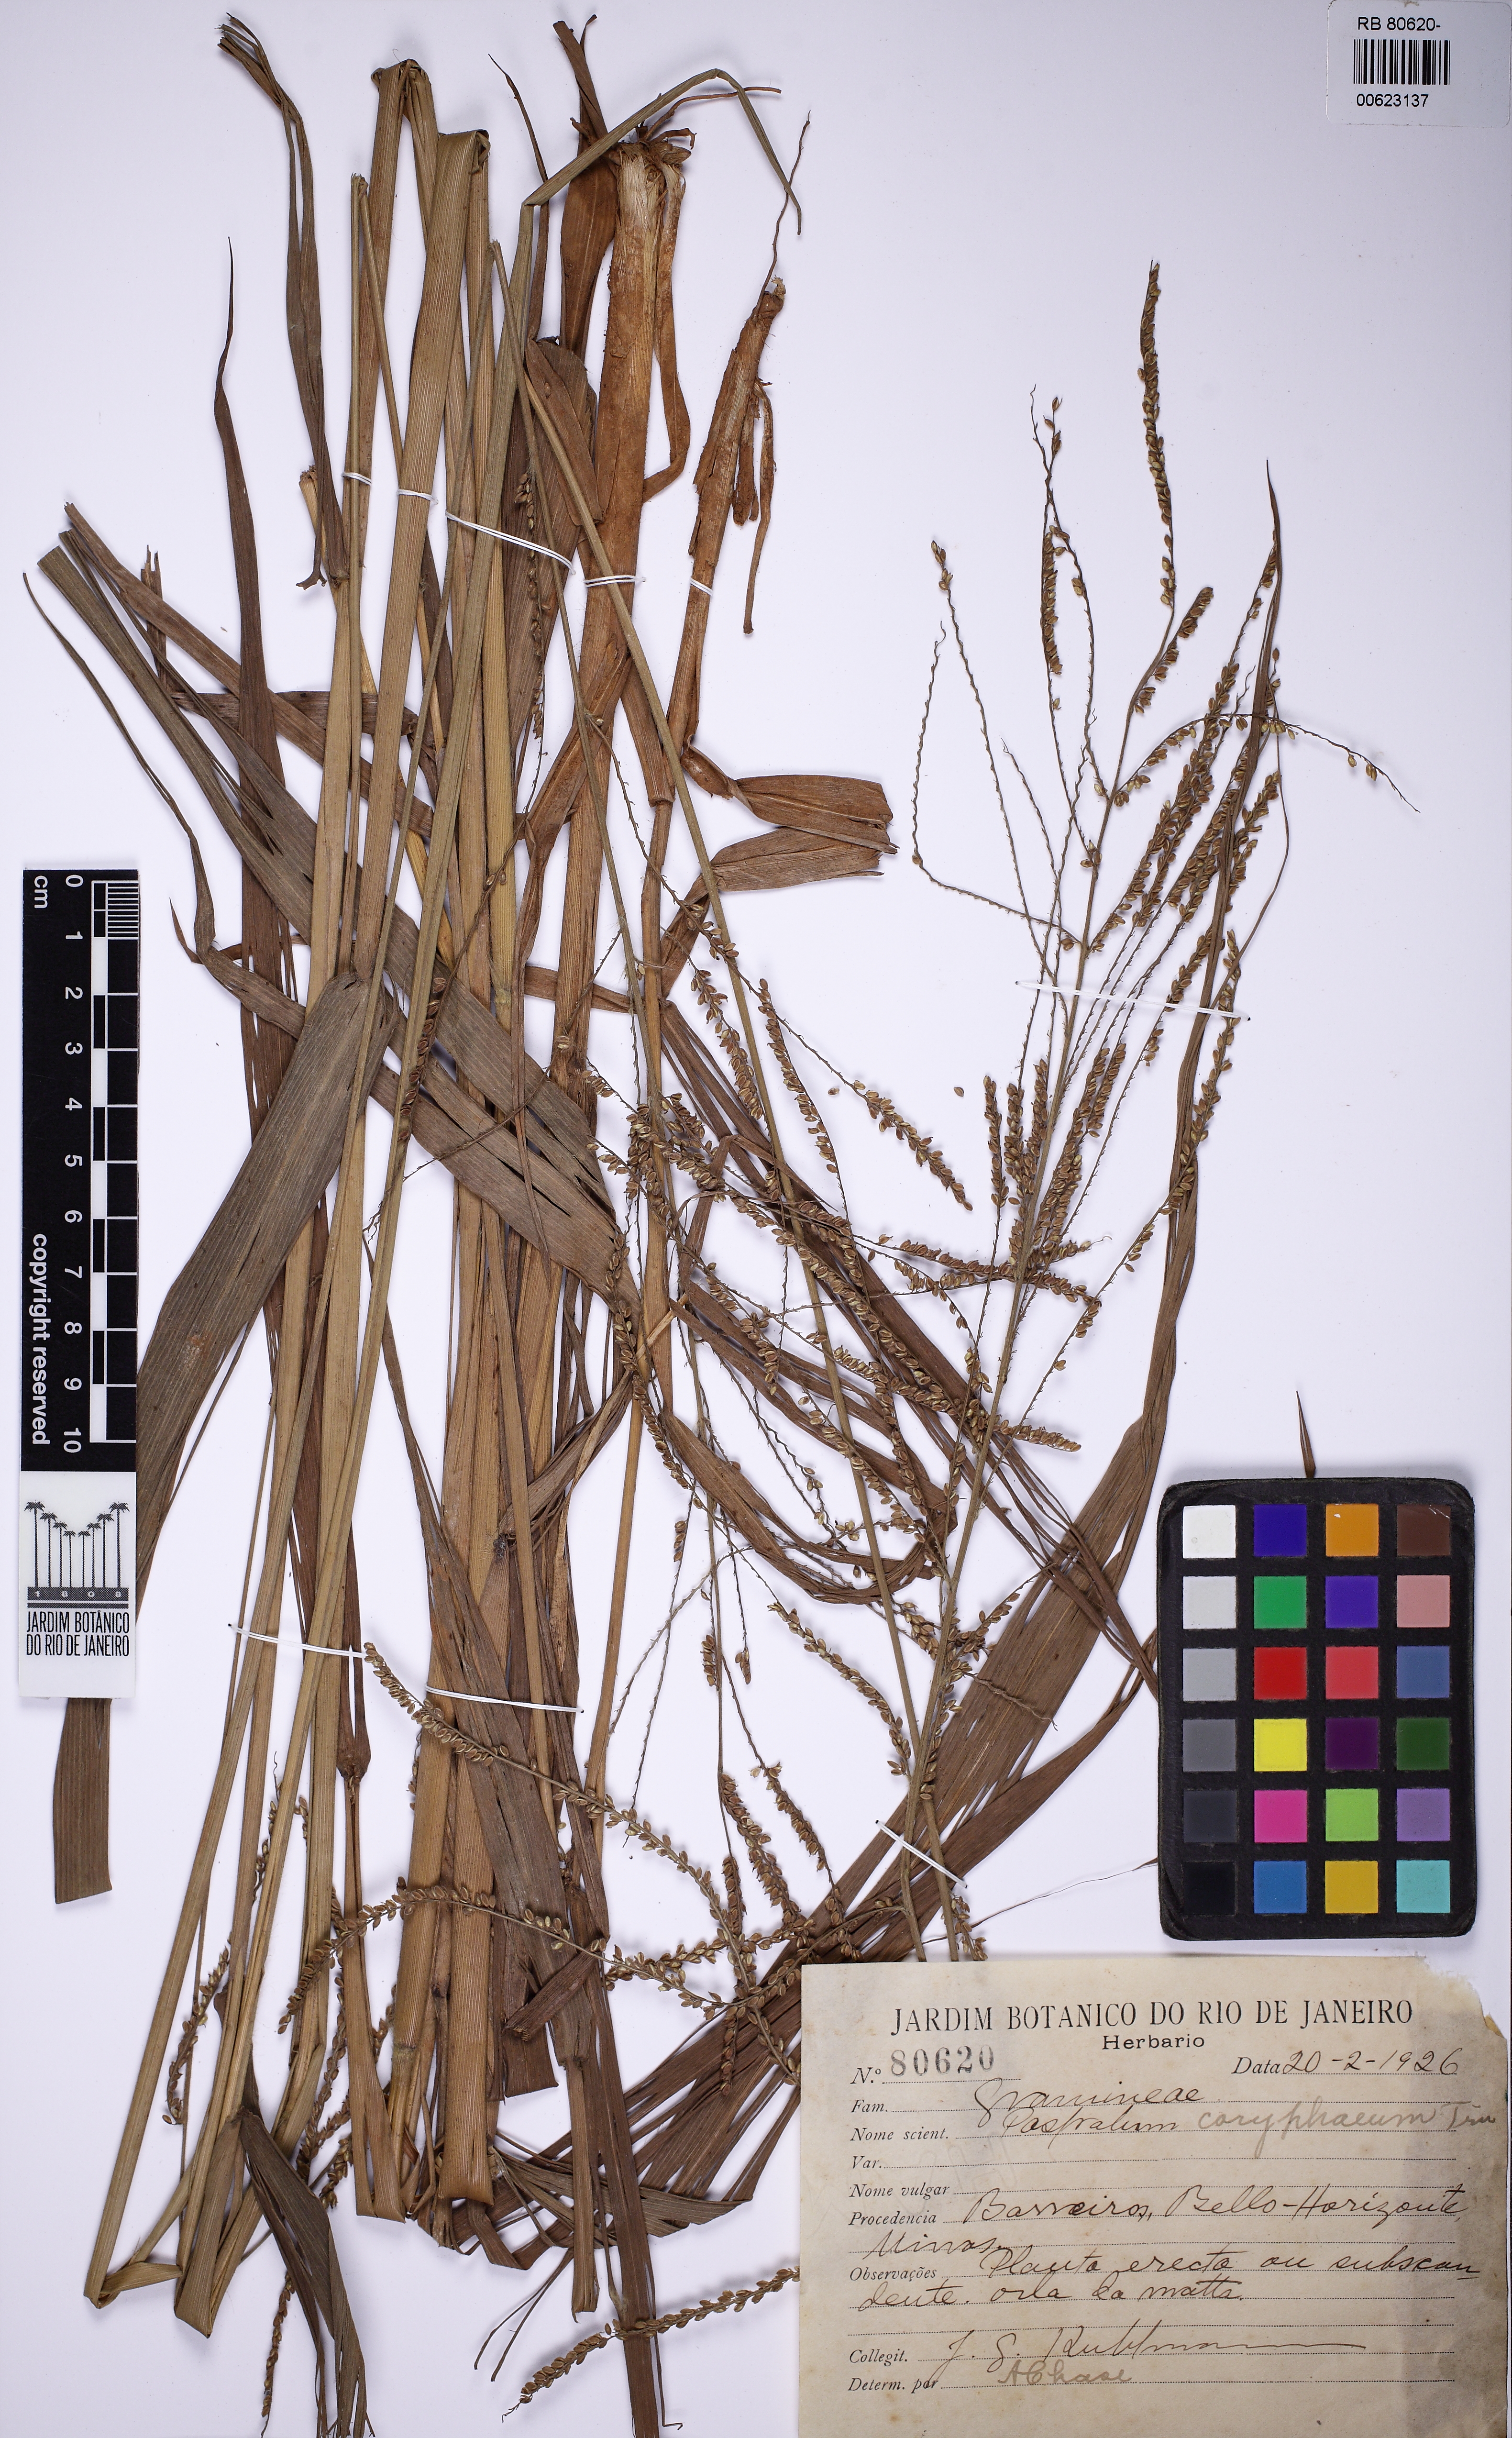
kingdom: Plantae
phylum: Tracheophyta
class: Liliopsida
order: Poales
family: Poaceae
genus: Paspalum
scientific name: Paspalum coryphaeum
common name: Emperor crowngrass
